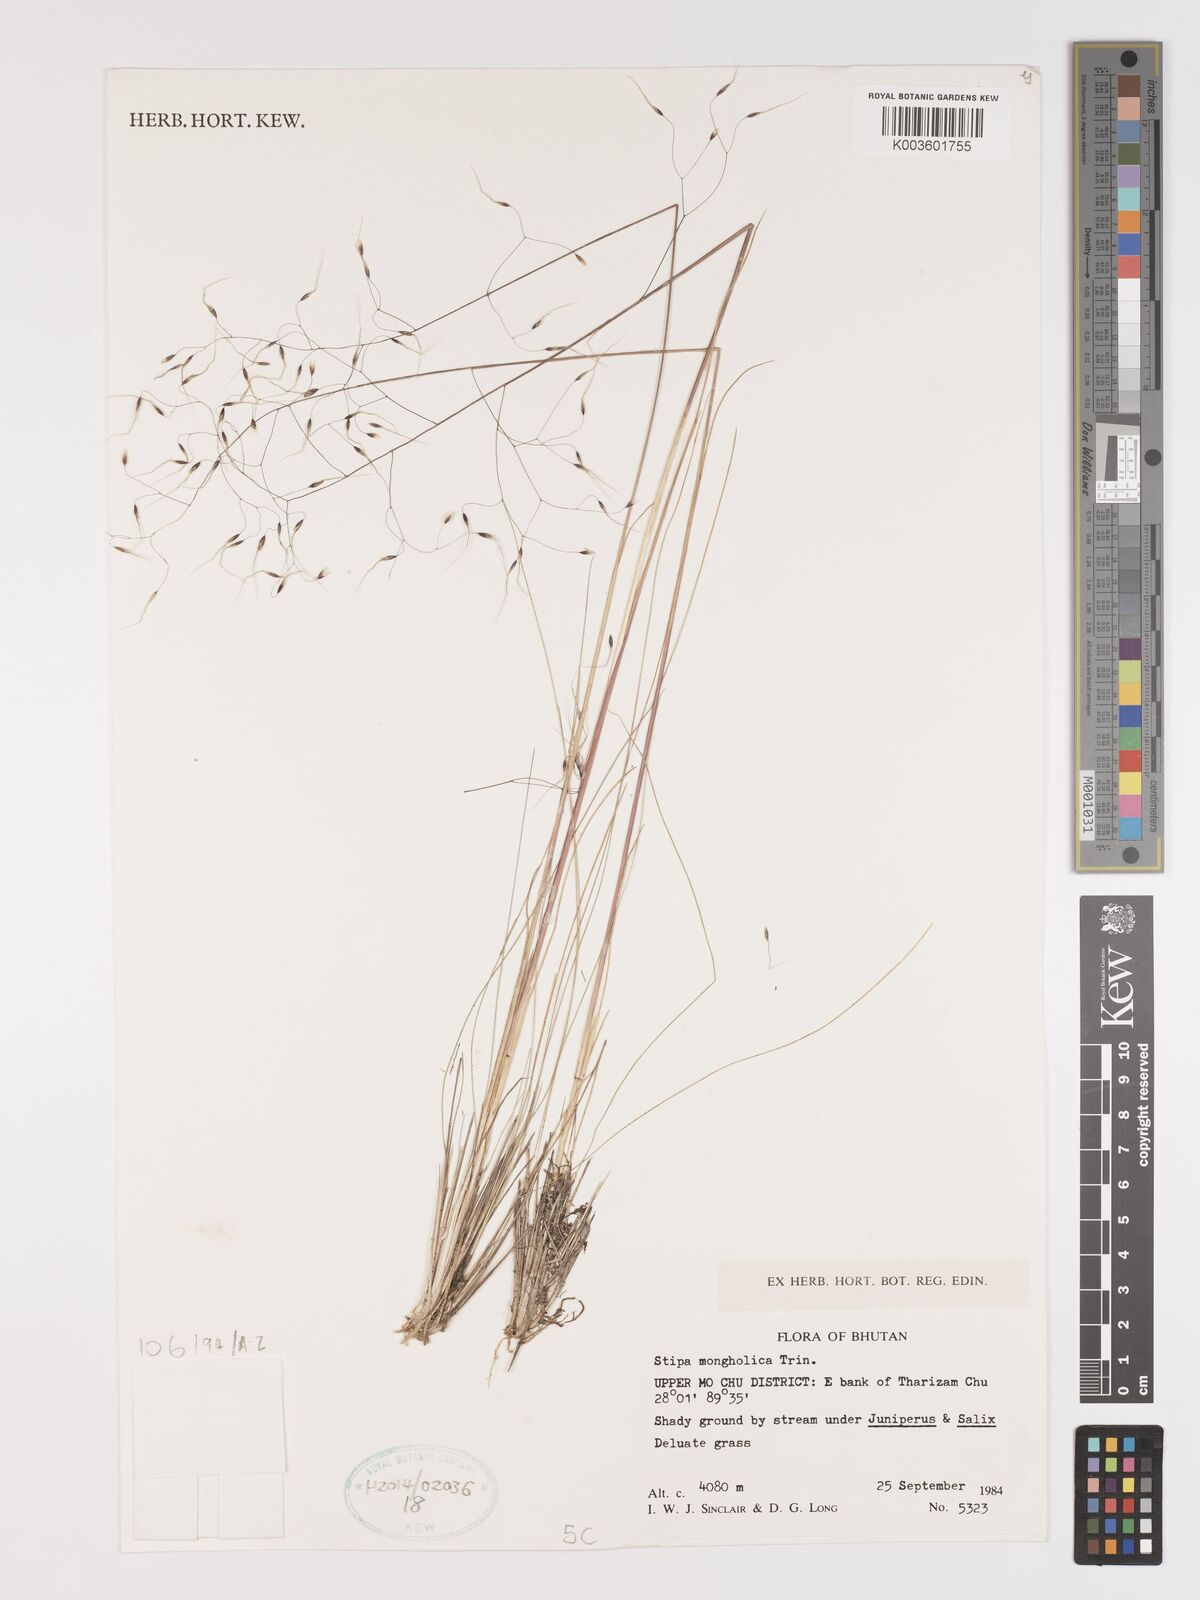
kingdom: Plantae
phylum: Tracheophyta
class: Liliopsida
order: Poales
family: Poaceae
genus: Ptilagrostis
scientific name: Ptilagrostis mongholica
